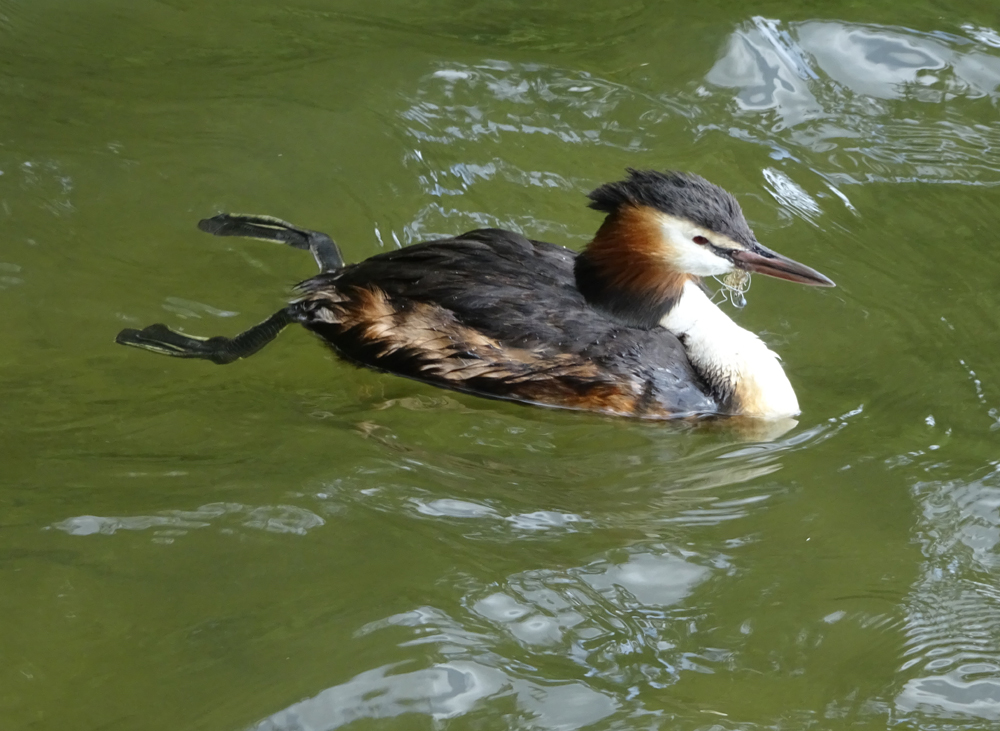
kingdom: Animalia
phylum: Chordata
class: Aves
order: Podicipediformes
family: Podicipedidae
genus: Podiceps
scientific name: Podiceps cristatus
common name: Great crested grebe
